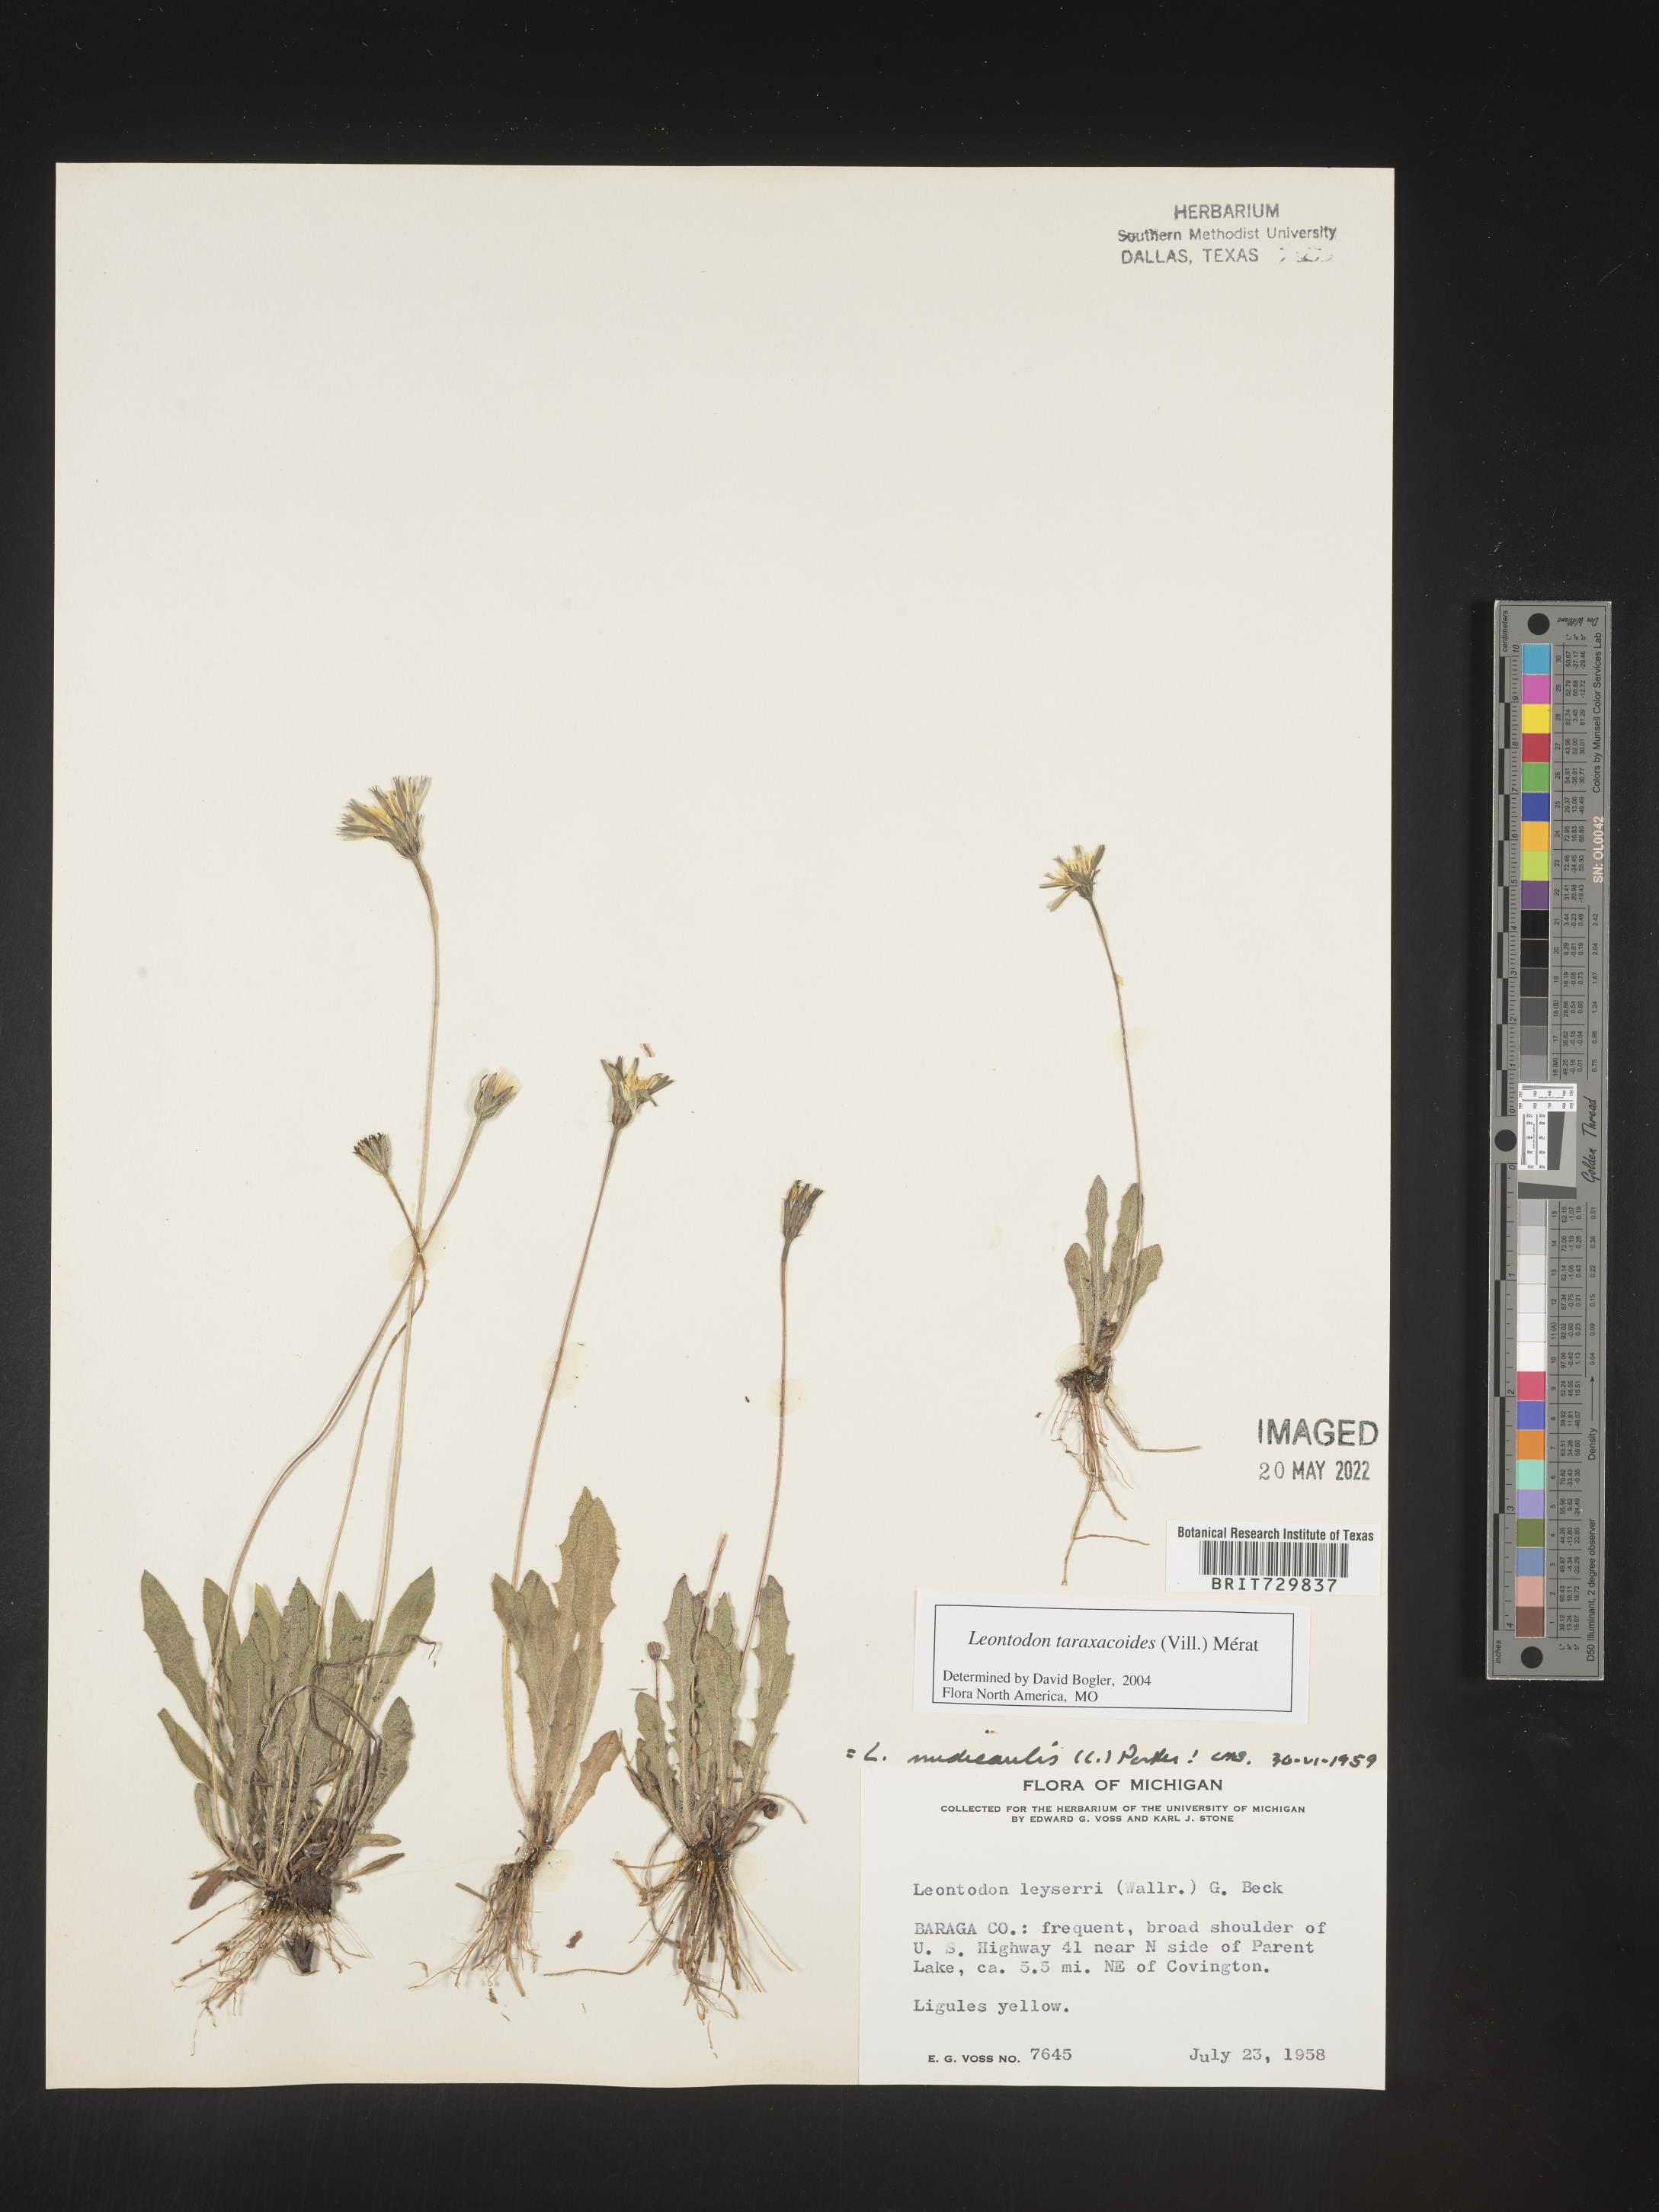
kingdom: Plantae
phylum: Tracheophyta
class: Magnoliopsida
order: Asterales
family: Asteraceae
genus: Leontodon
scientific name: Leontodon
